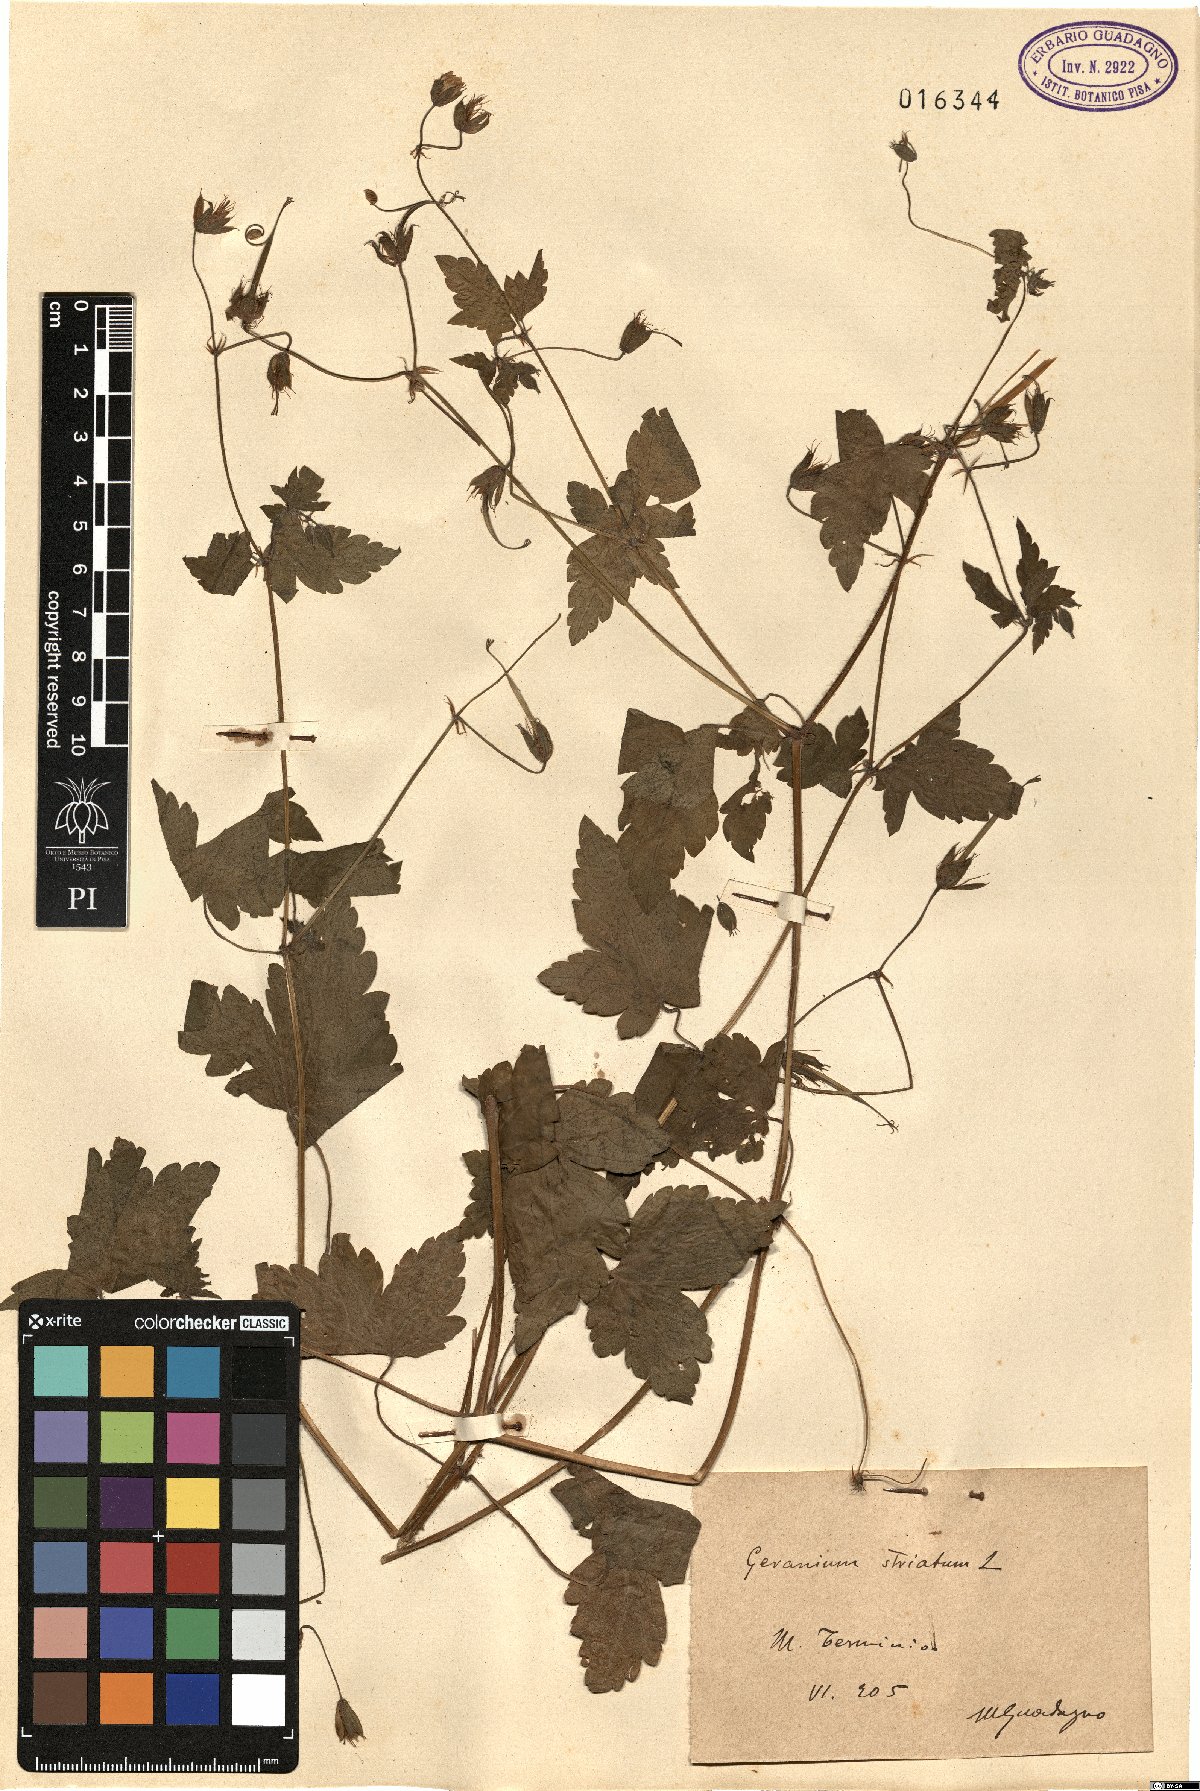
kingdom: Plantae
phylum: Tracheophyta
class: Magnoliopsida
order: Geraniales
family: Geraniaceae
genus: Geranium
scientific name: Geranium versicolor
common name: Pencilled crane's-bill
